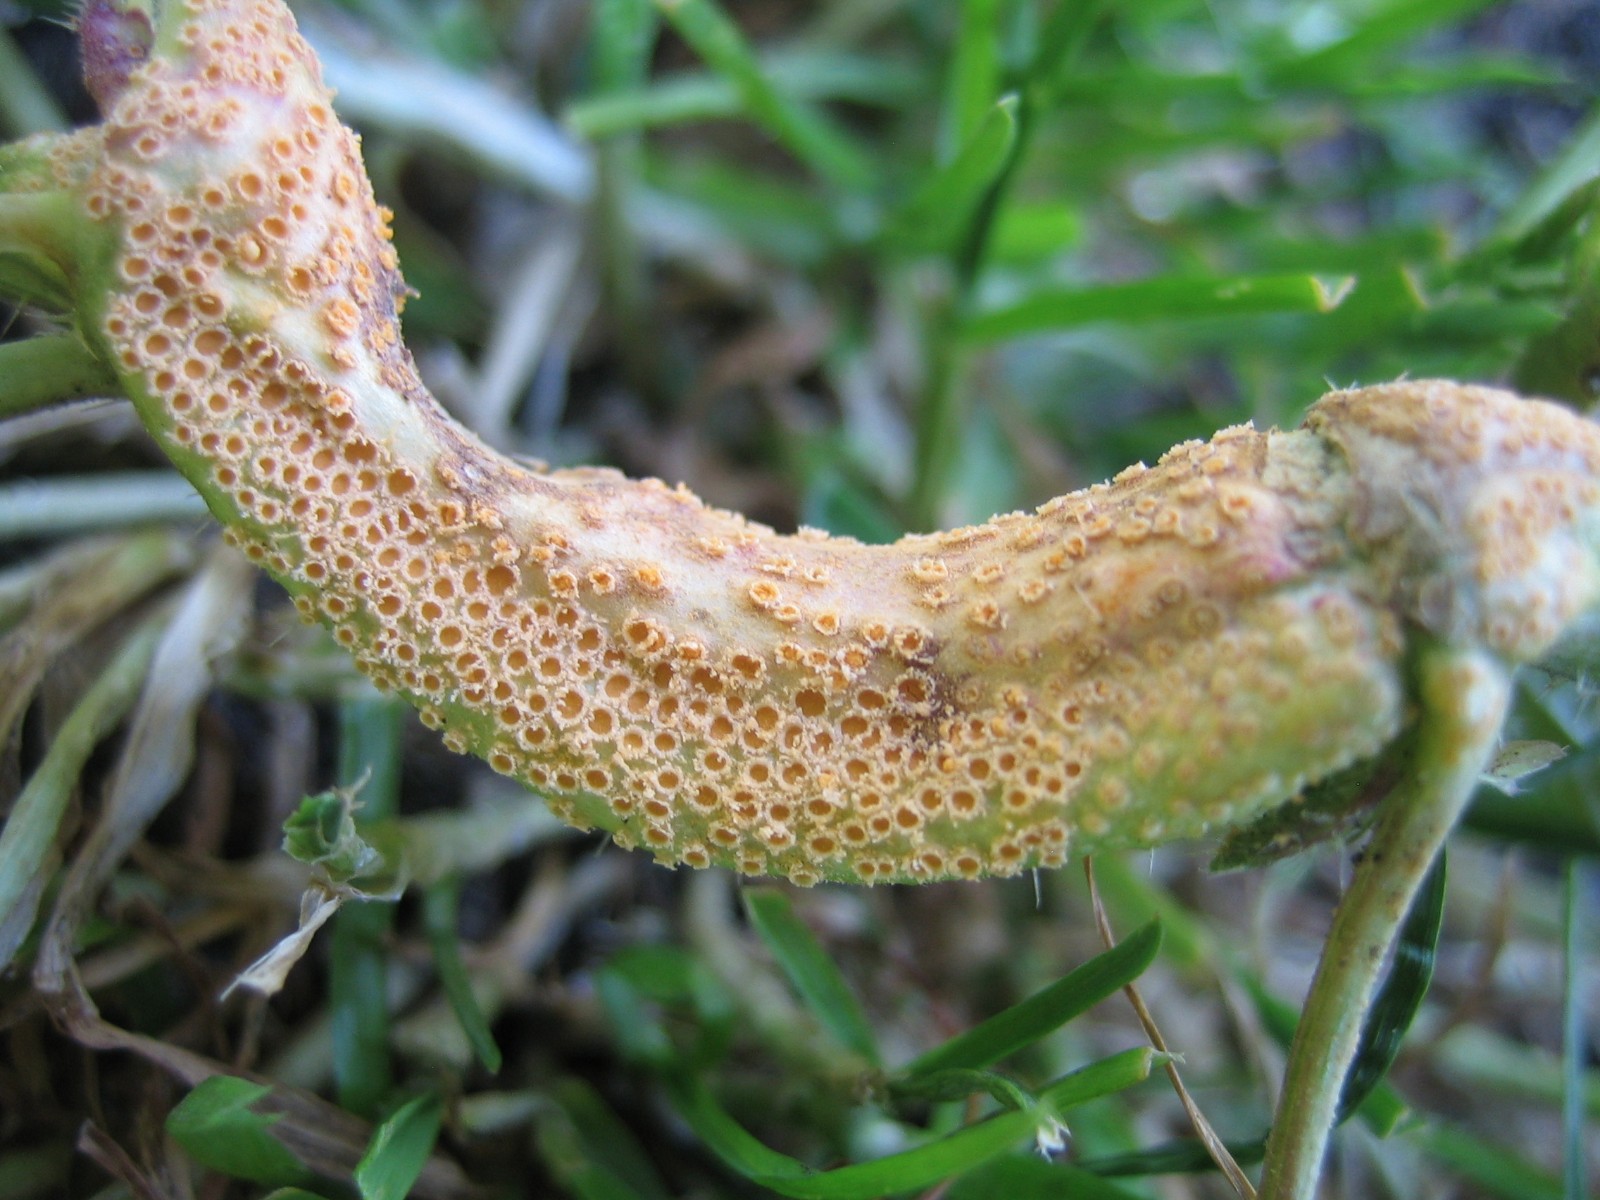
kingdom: Fungi
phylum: Basidiomycota
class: Pucciniomycetes
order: Pucciniales
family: Pucciniaceae
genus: Puccinia
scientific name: Puccinia urticata
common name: nældegalle-tvecellerust
